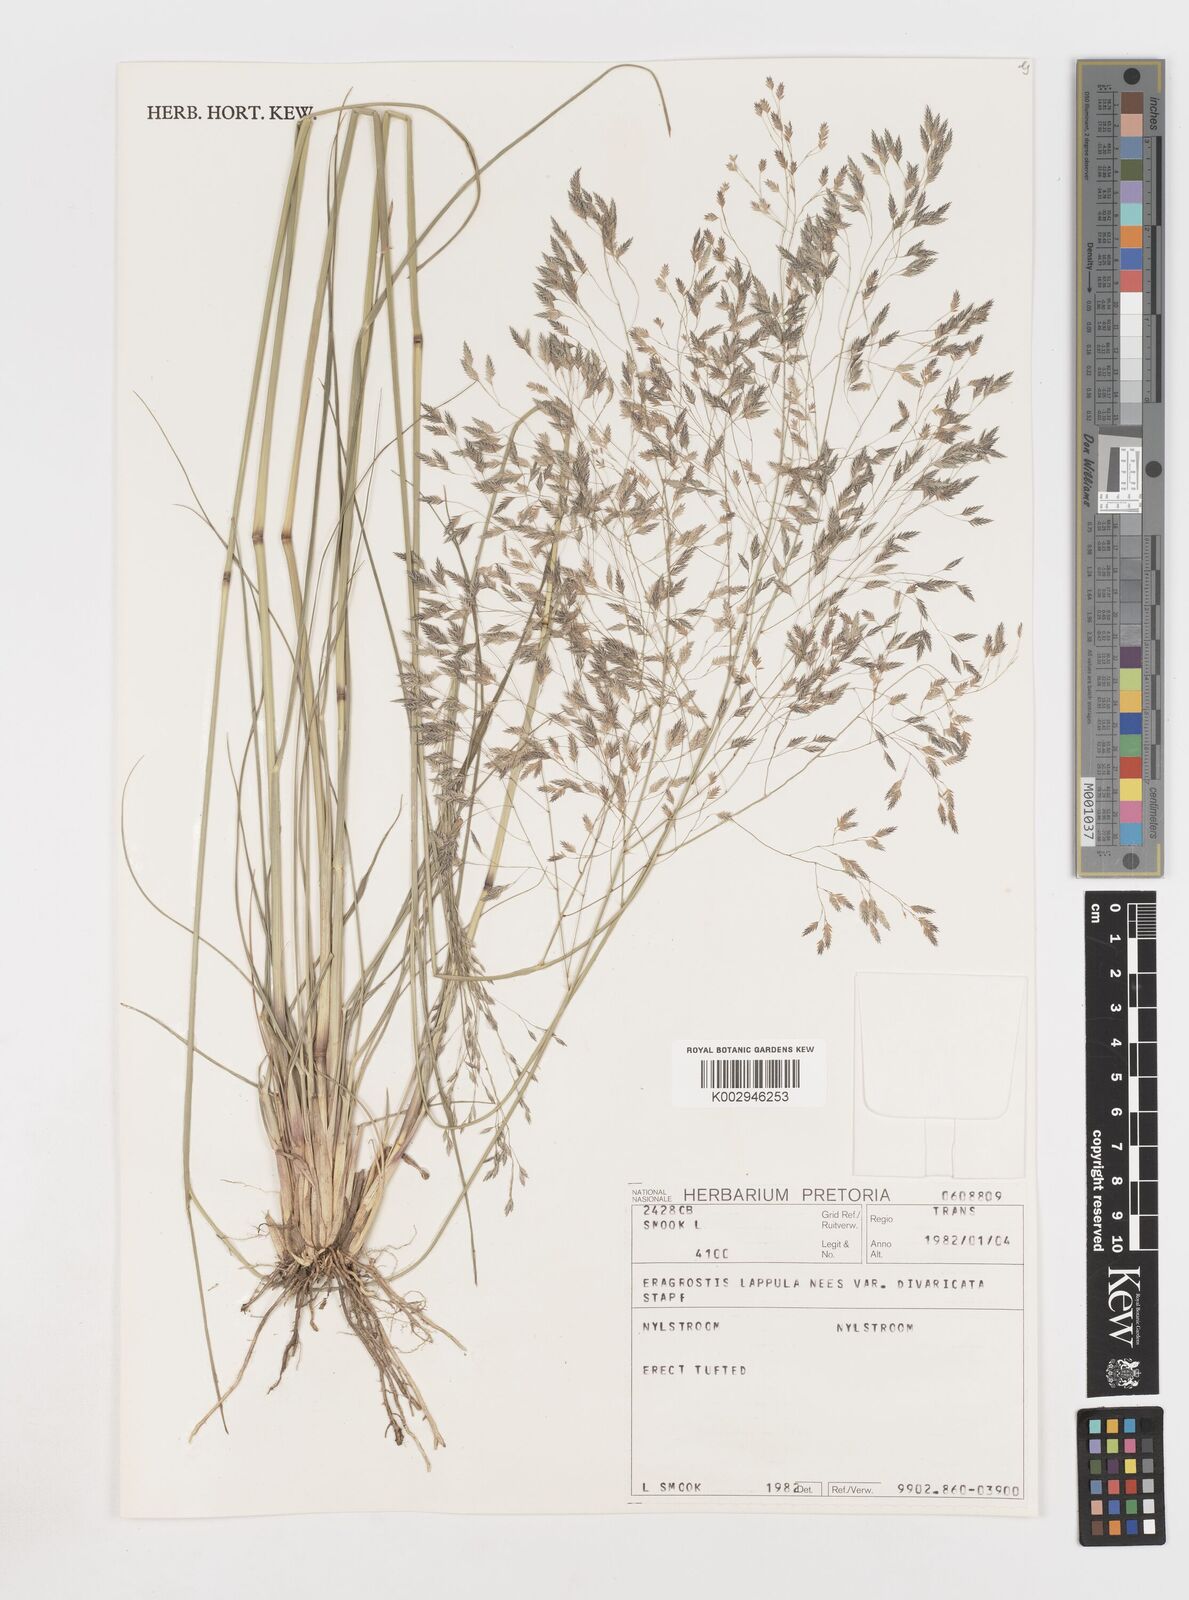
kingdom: Plantae
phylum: Tracheophyta
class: Liliopsida
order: Poales
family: Poaceae
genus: Eragrostis
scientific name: Eragrostis lappula
